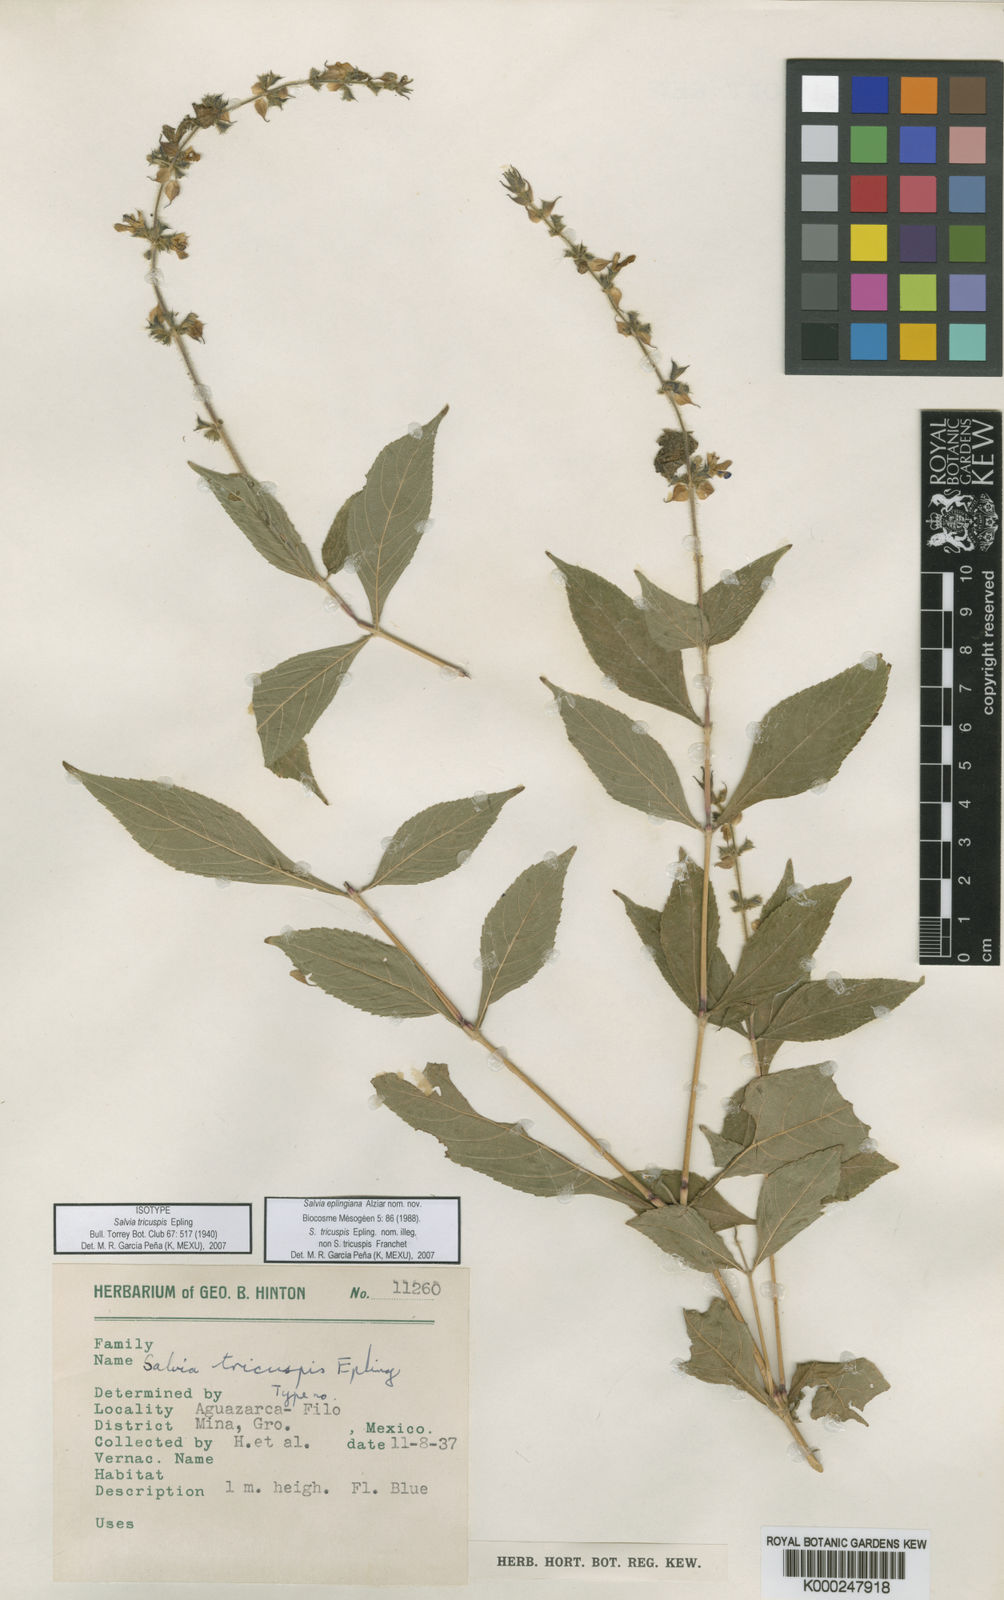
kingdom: Plantae
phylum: Tracheophyta
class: Magnoliopsida
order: Lamiales
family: Lamiaceae
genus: Salvia
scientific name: Salvia
